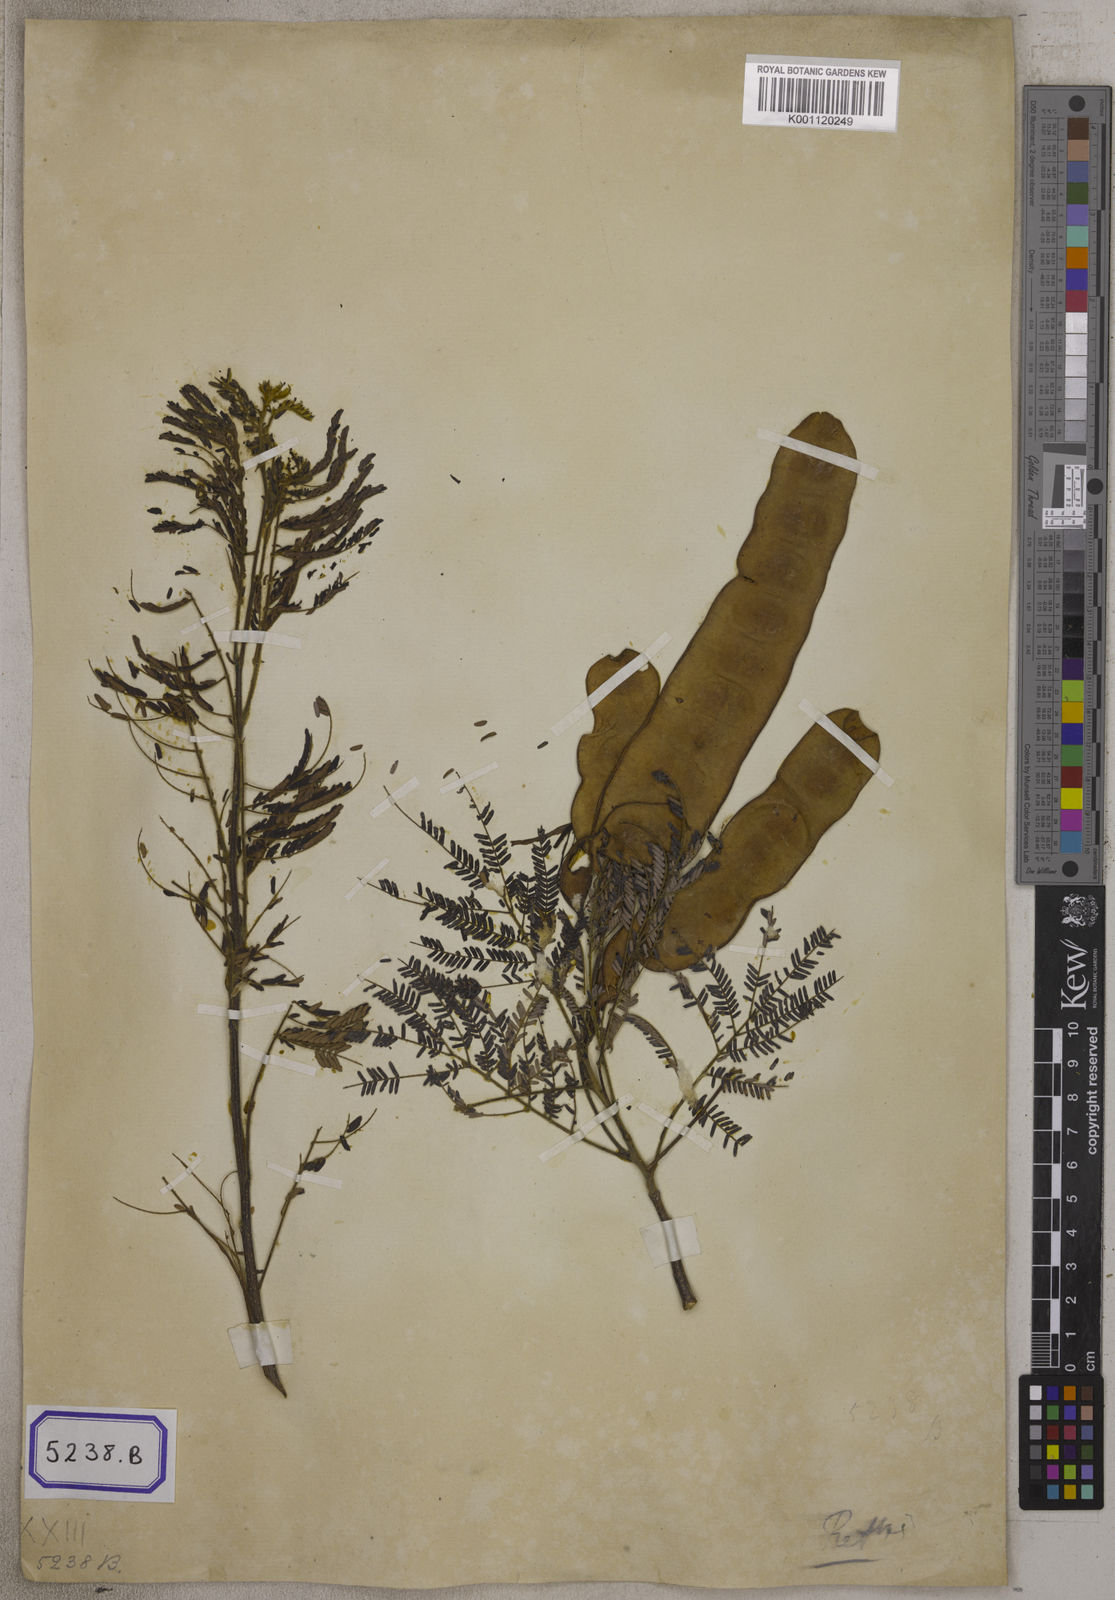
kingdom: Plantae
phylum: Tracheophyta
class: Magnoliopsida
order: Fabales
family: Fabaceae
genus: Albizia
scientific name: Albizia amara
